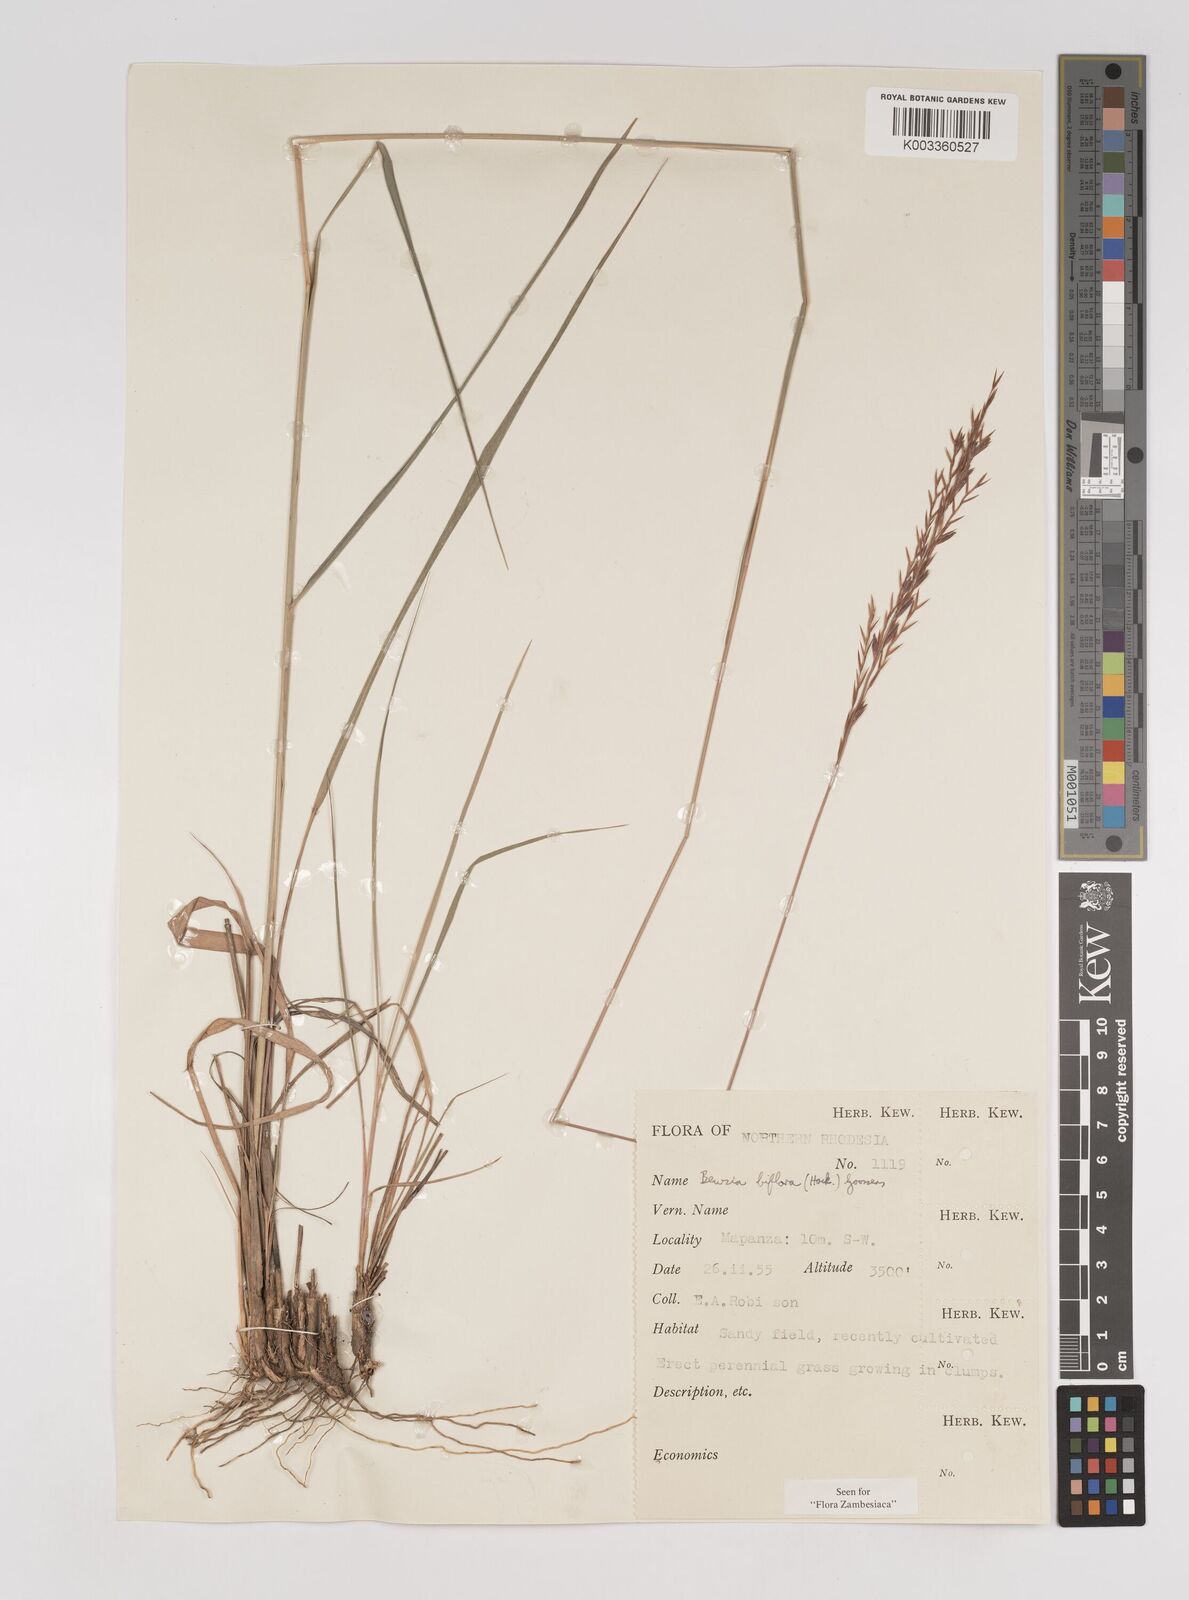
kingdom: Plantae
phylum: Tracheophyta
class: Liliopsida
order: Poales
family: Poaceae
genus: Bewsia
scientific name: Bewsia biflora
